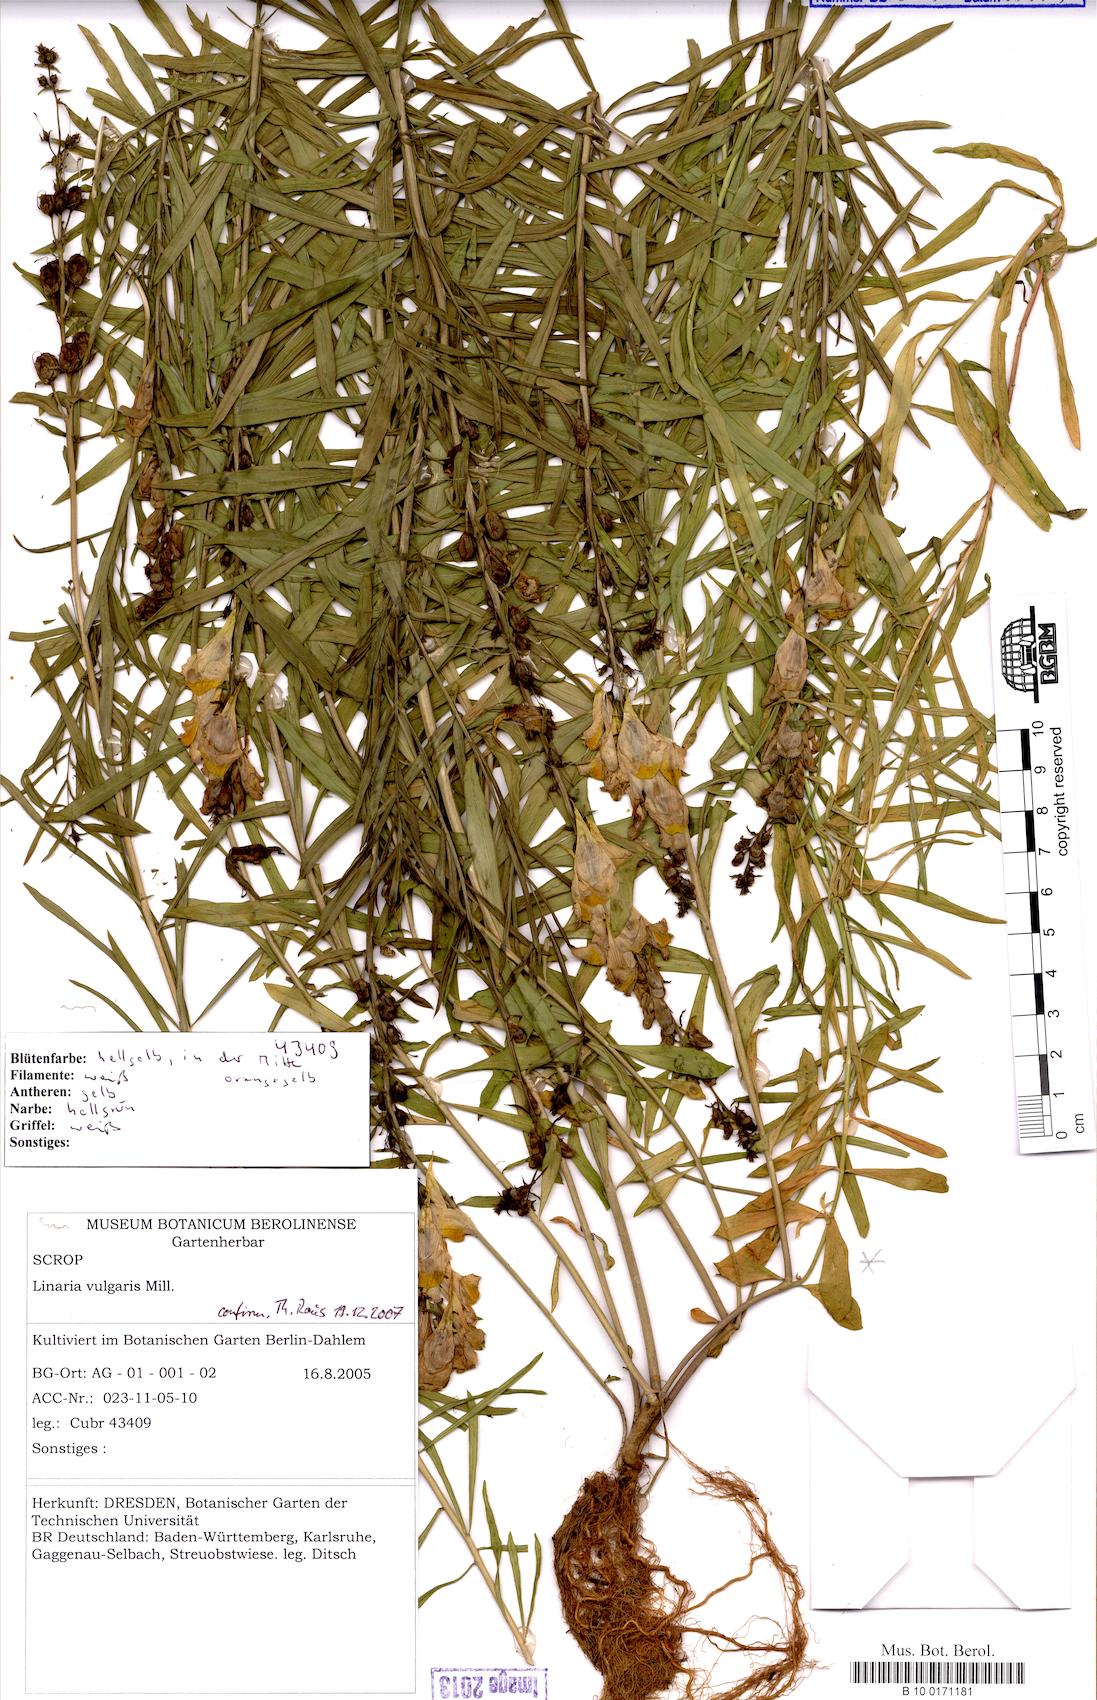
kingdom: Plantae
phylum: Tracheophyta
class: Magnoliopsida
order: Lamiales
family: Plantaginaceae
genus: Linaria
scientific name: Linaria vulgaris
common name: Butter and eggs
